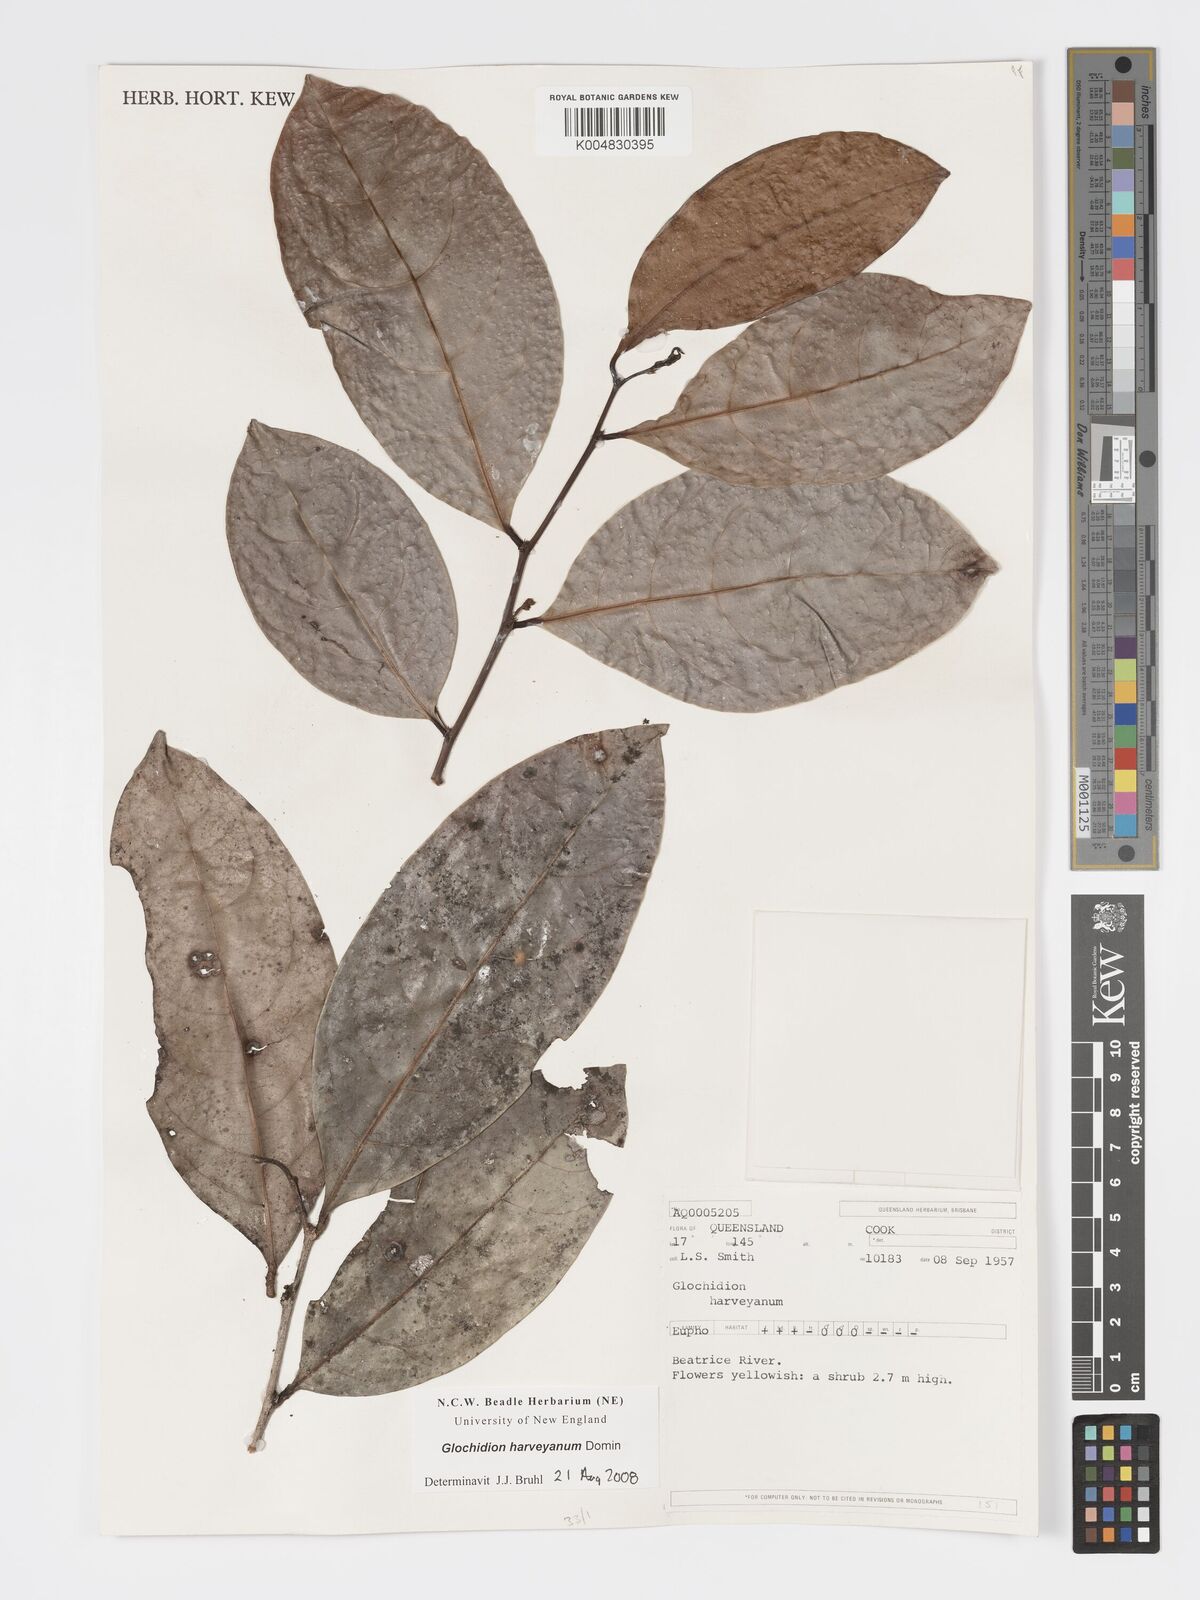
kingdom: Plantae
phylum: Tracheophyta
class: Magnoliopsida
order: Malpighiales
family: Phyllanthaceae
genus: Glochidion
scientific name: Glochidion harveyanum
